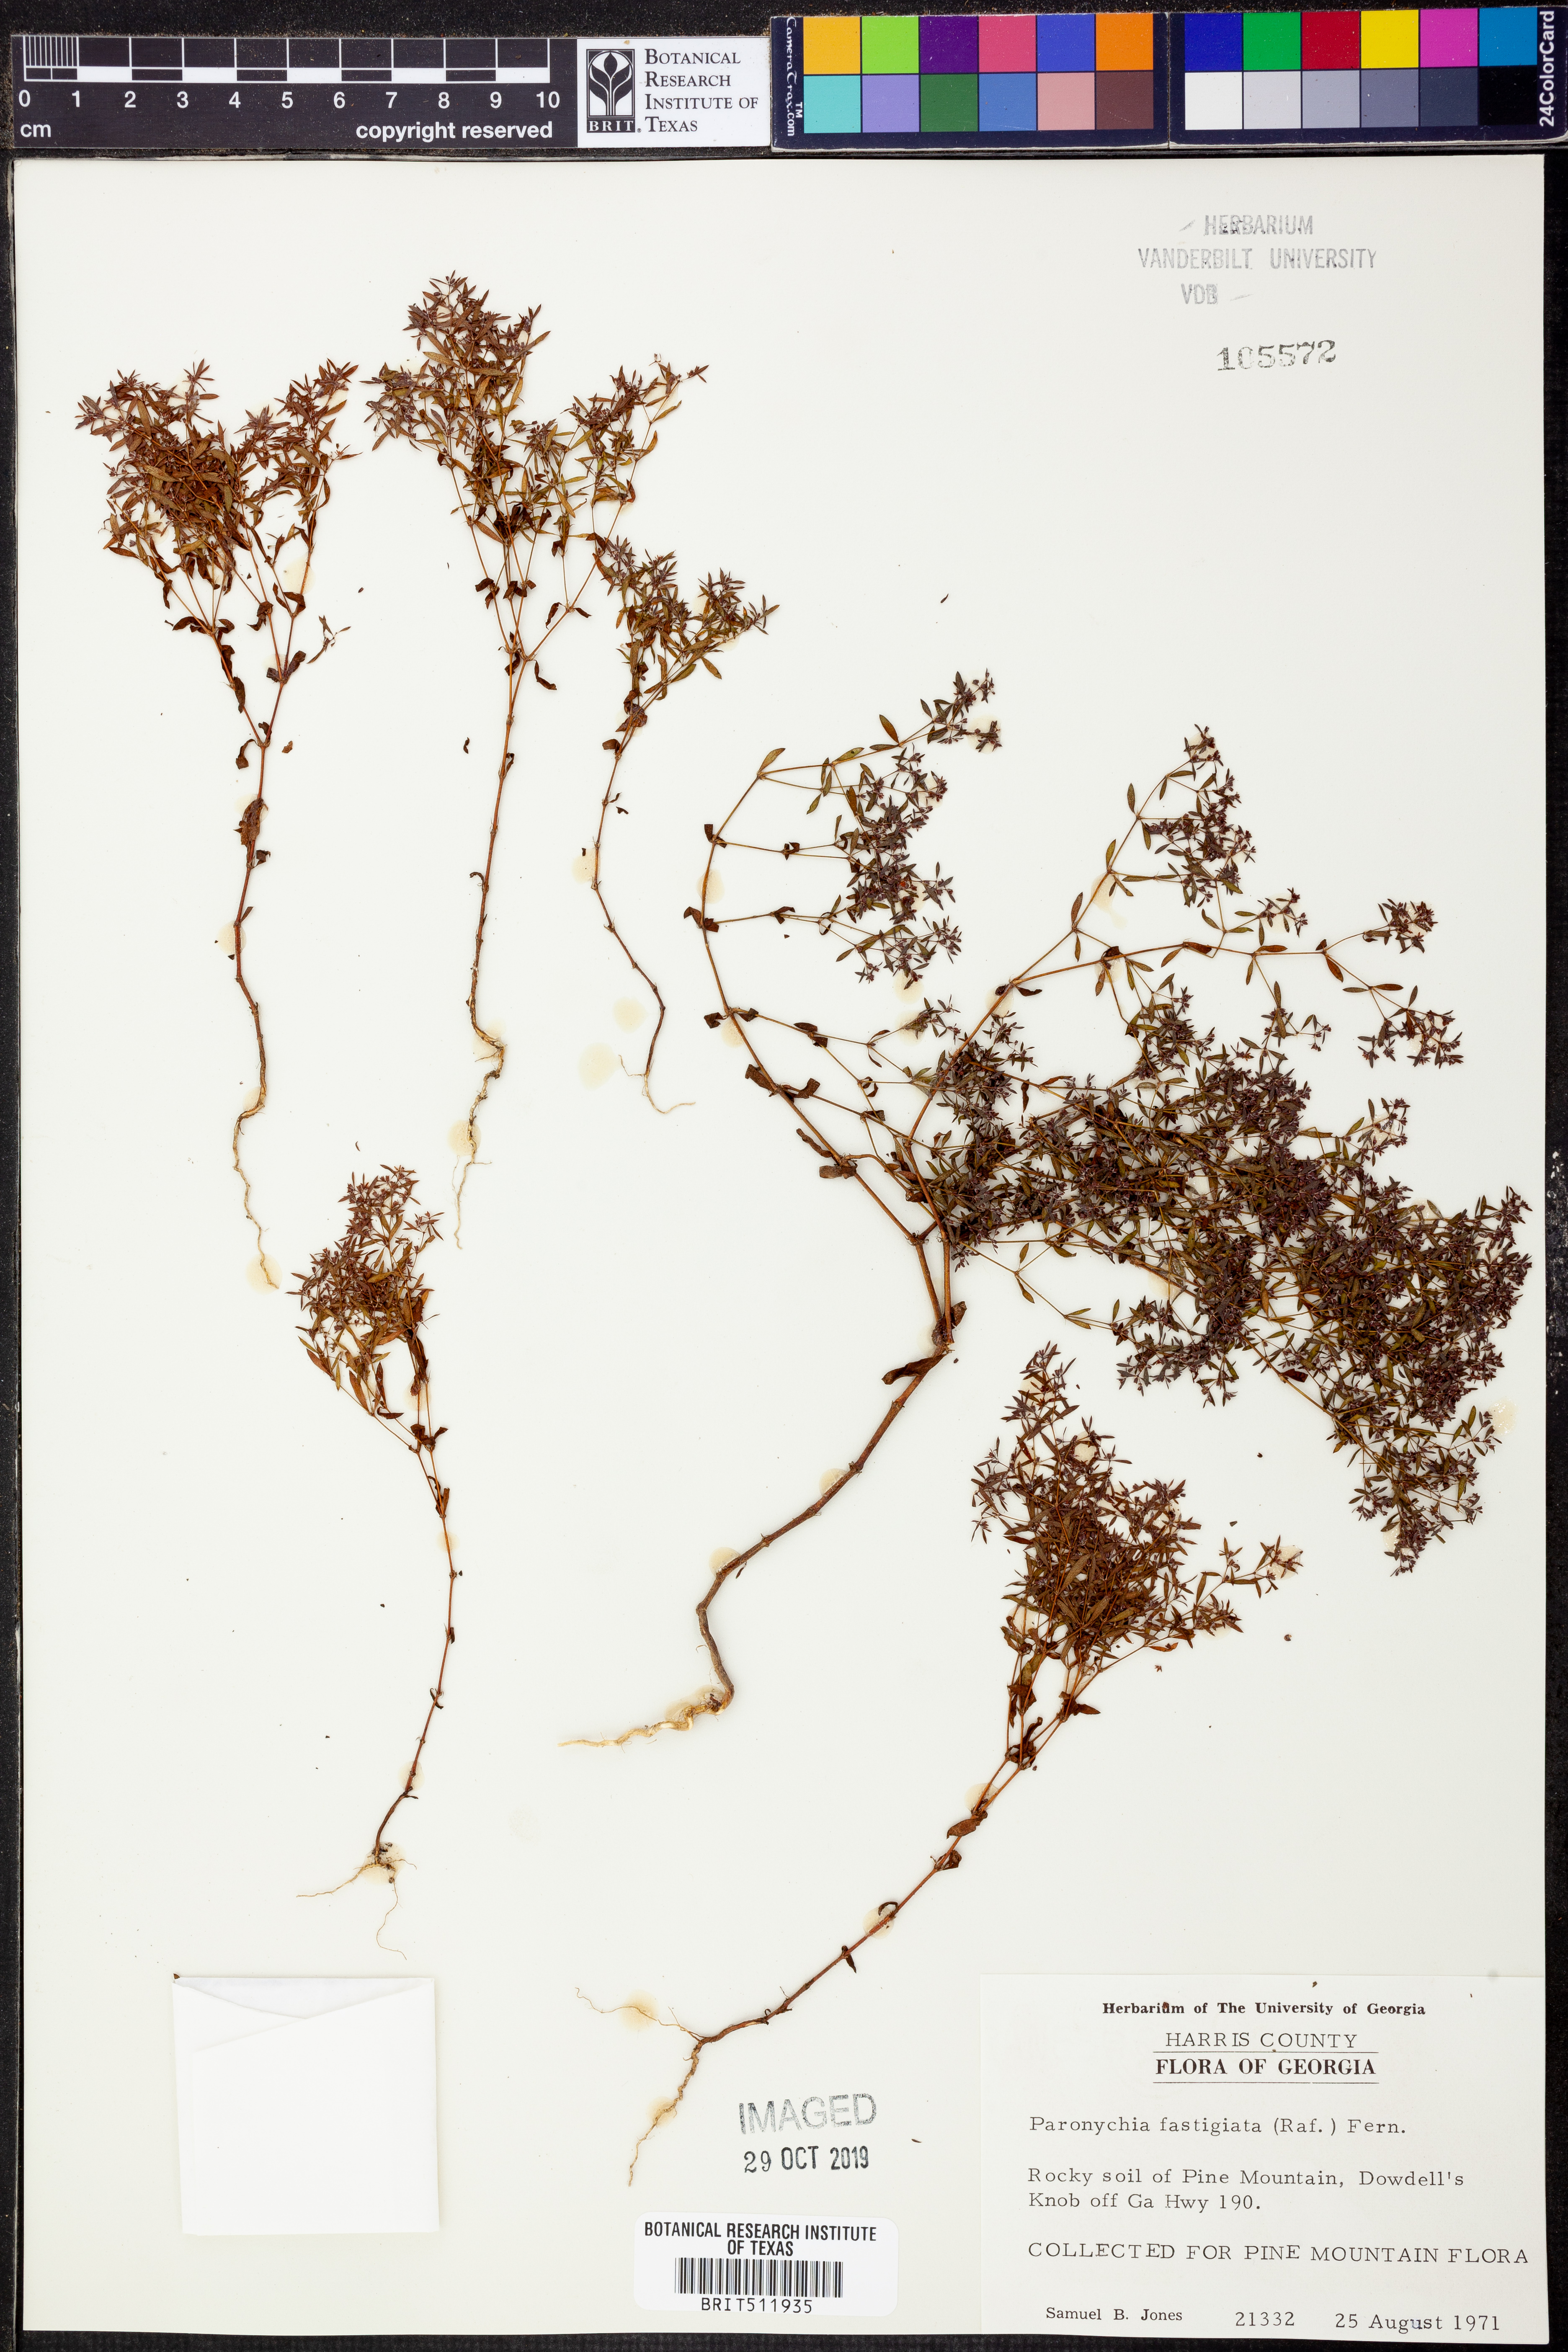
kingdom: Plantae
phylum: Tracheophyta
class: Magnoliopsida
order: Caryophyllales
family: Caryophyllaceae
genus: Paronychia
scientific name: Paronychia fastigiata
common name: Branching forked whitlow-wort
